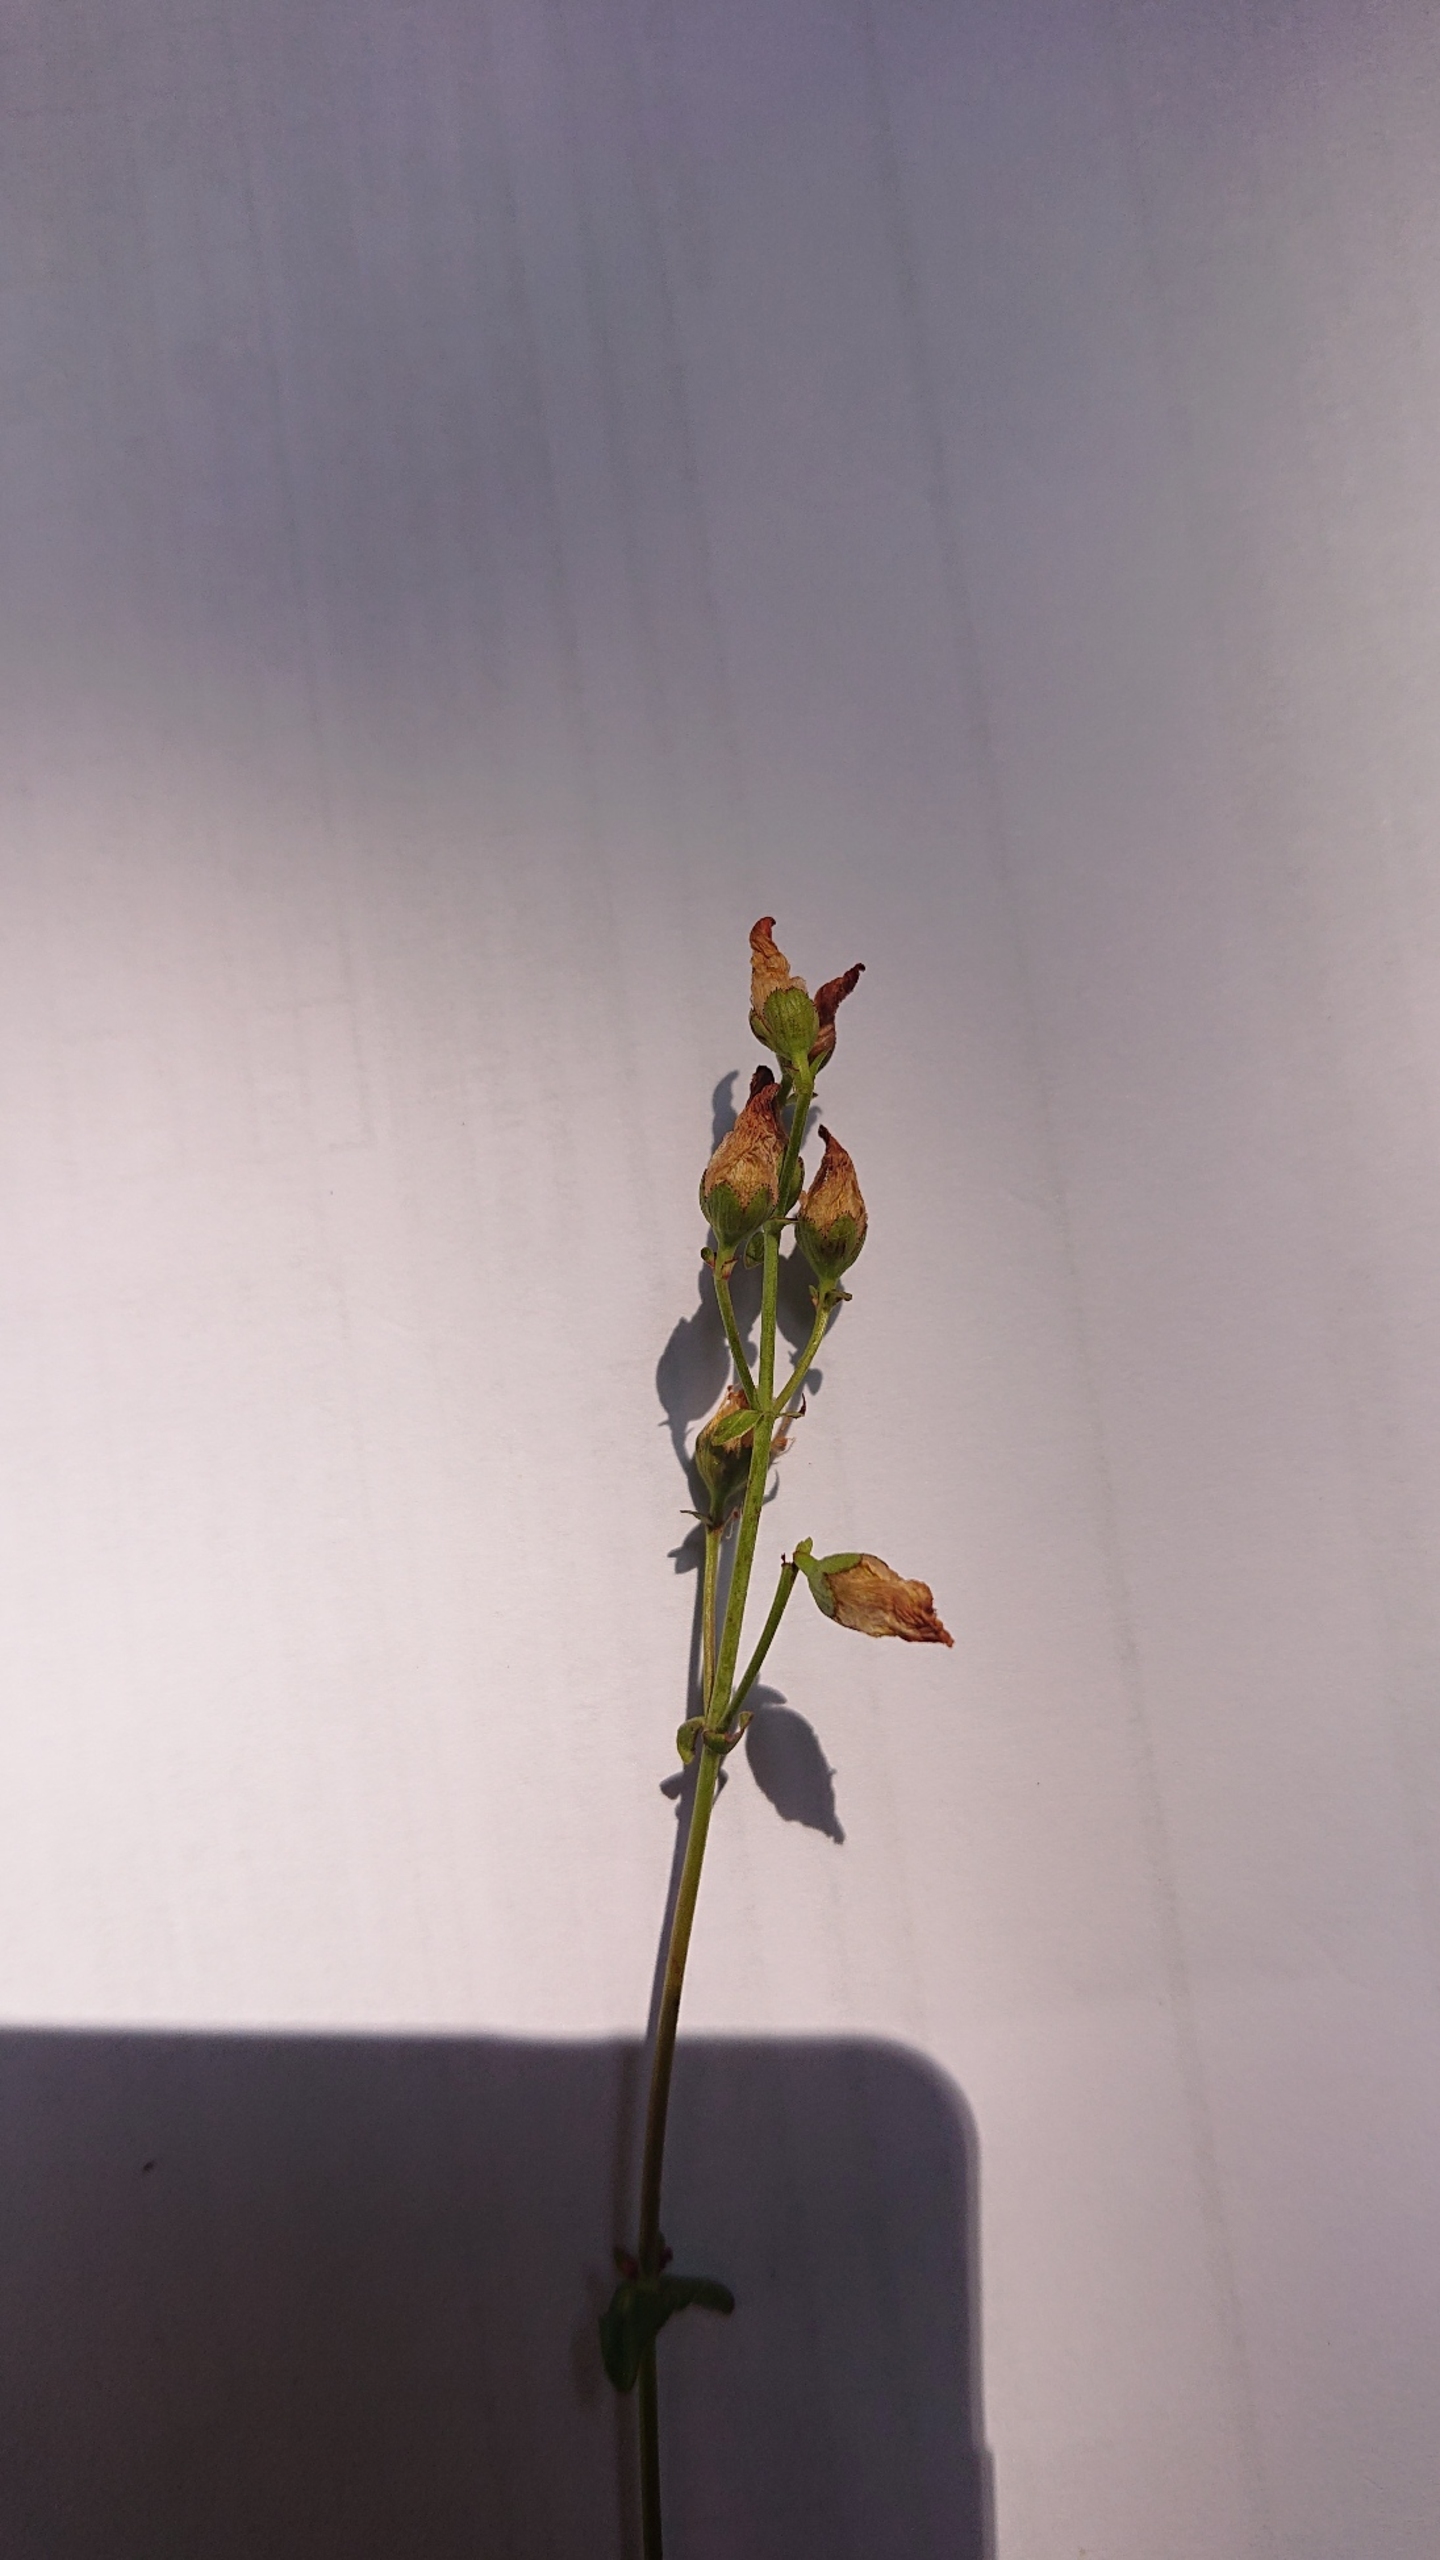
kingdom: Plantae
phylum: Tracheophyta
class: Magnoliopsida
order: Malpighiales
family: Hypericaceae
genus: Hypericum
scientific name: Hypericum pulchrum
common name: Smuk perikon
